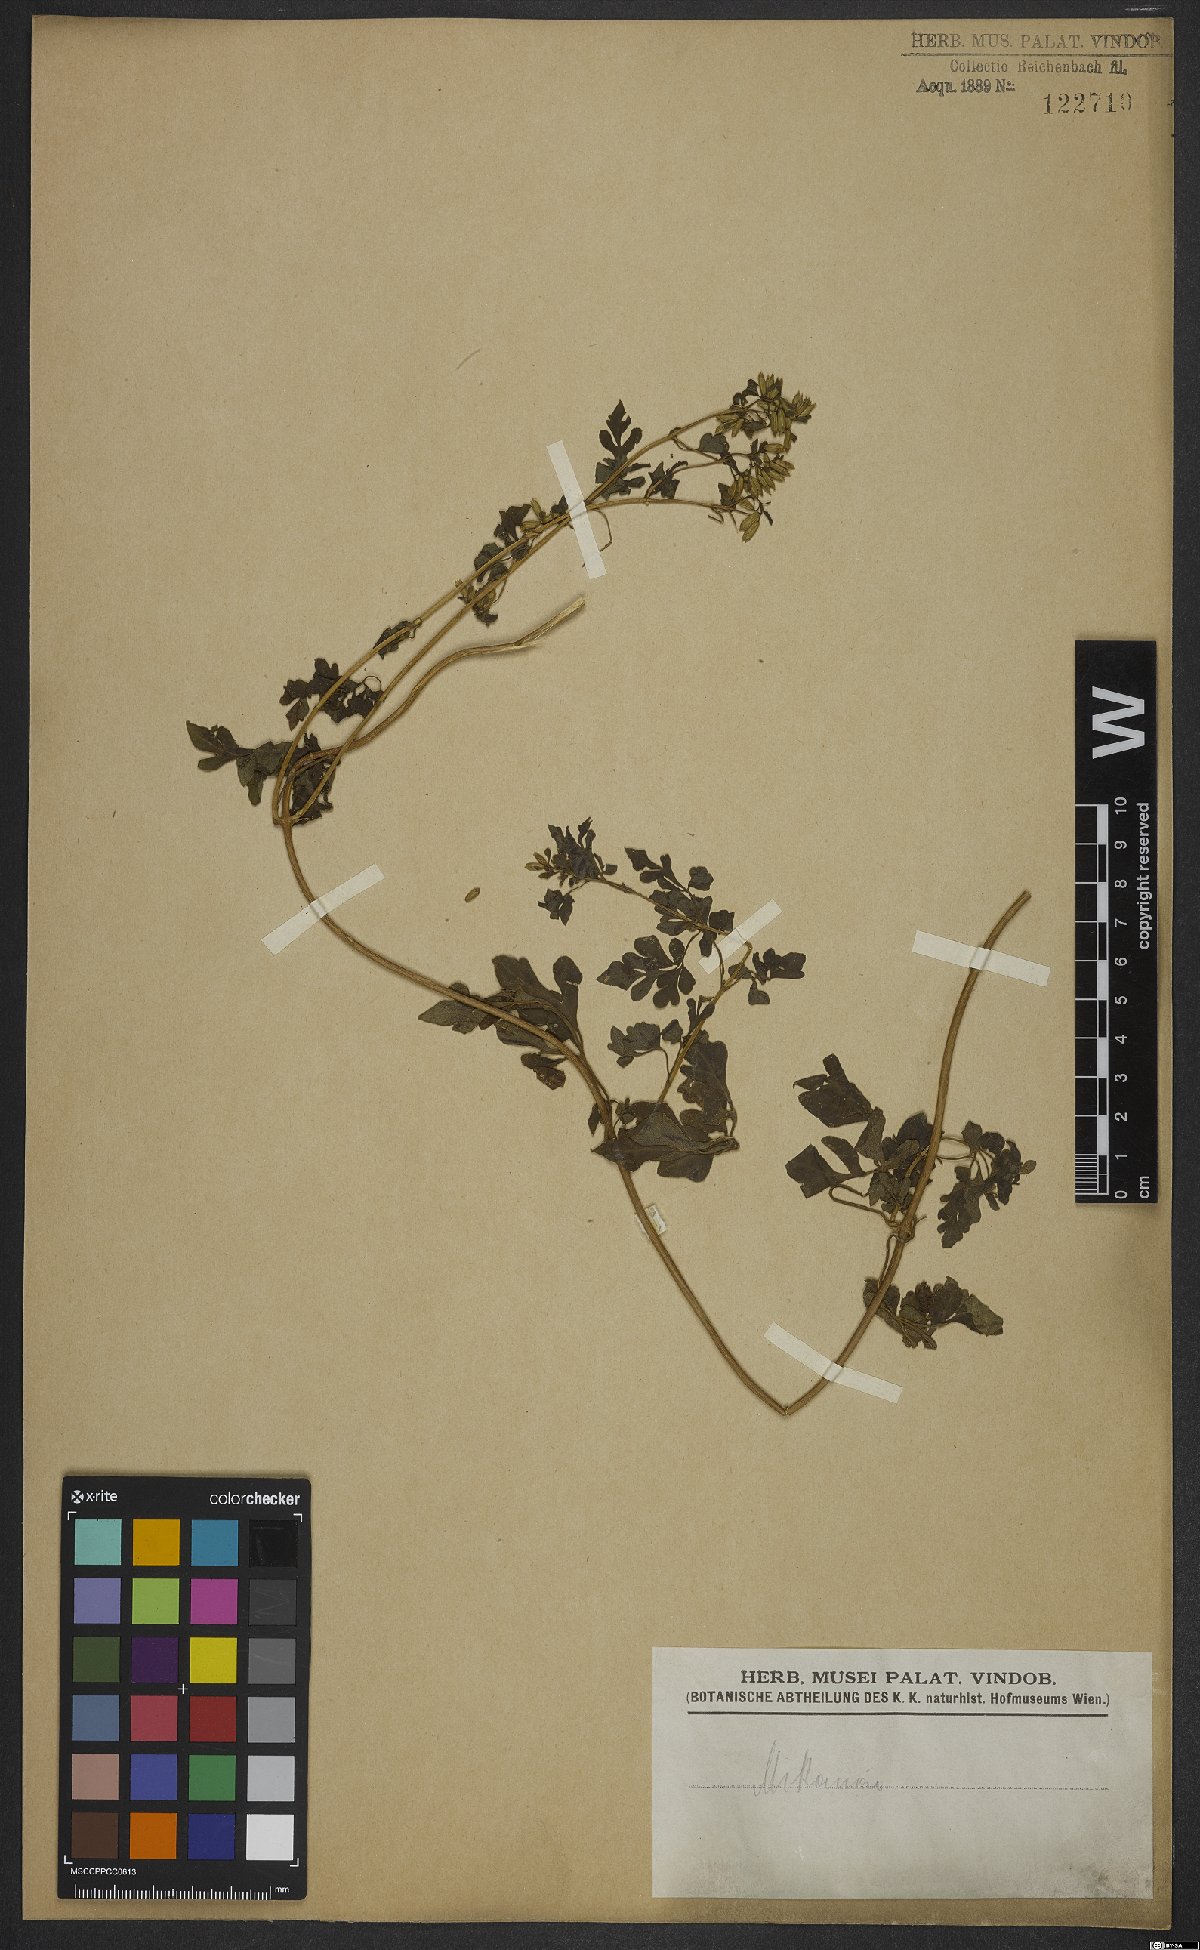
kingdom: Plantae
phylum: Tracheophyta
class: Magnoliopsida
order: Asterales
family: Asteraceae
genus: Mikania
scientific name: Mikania
